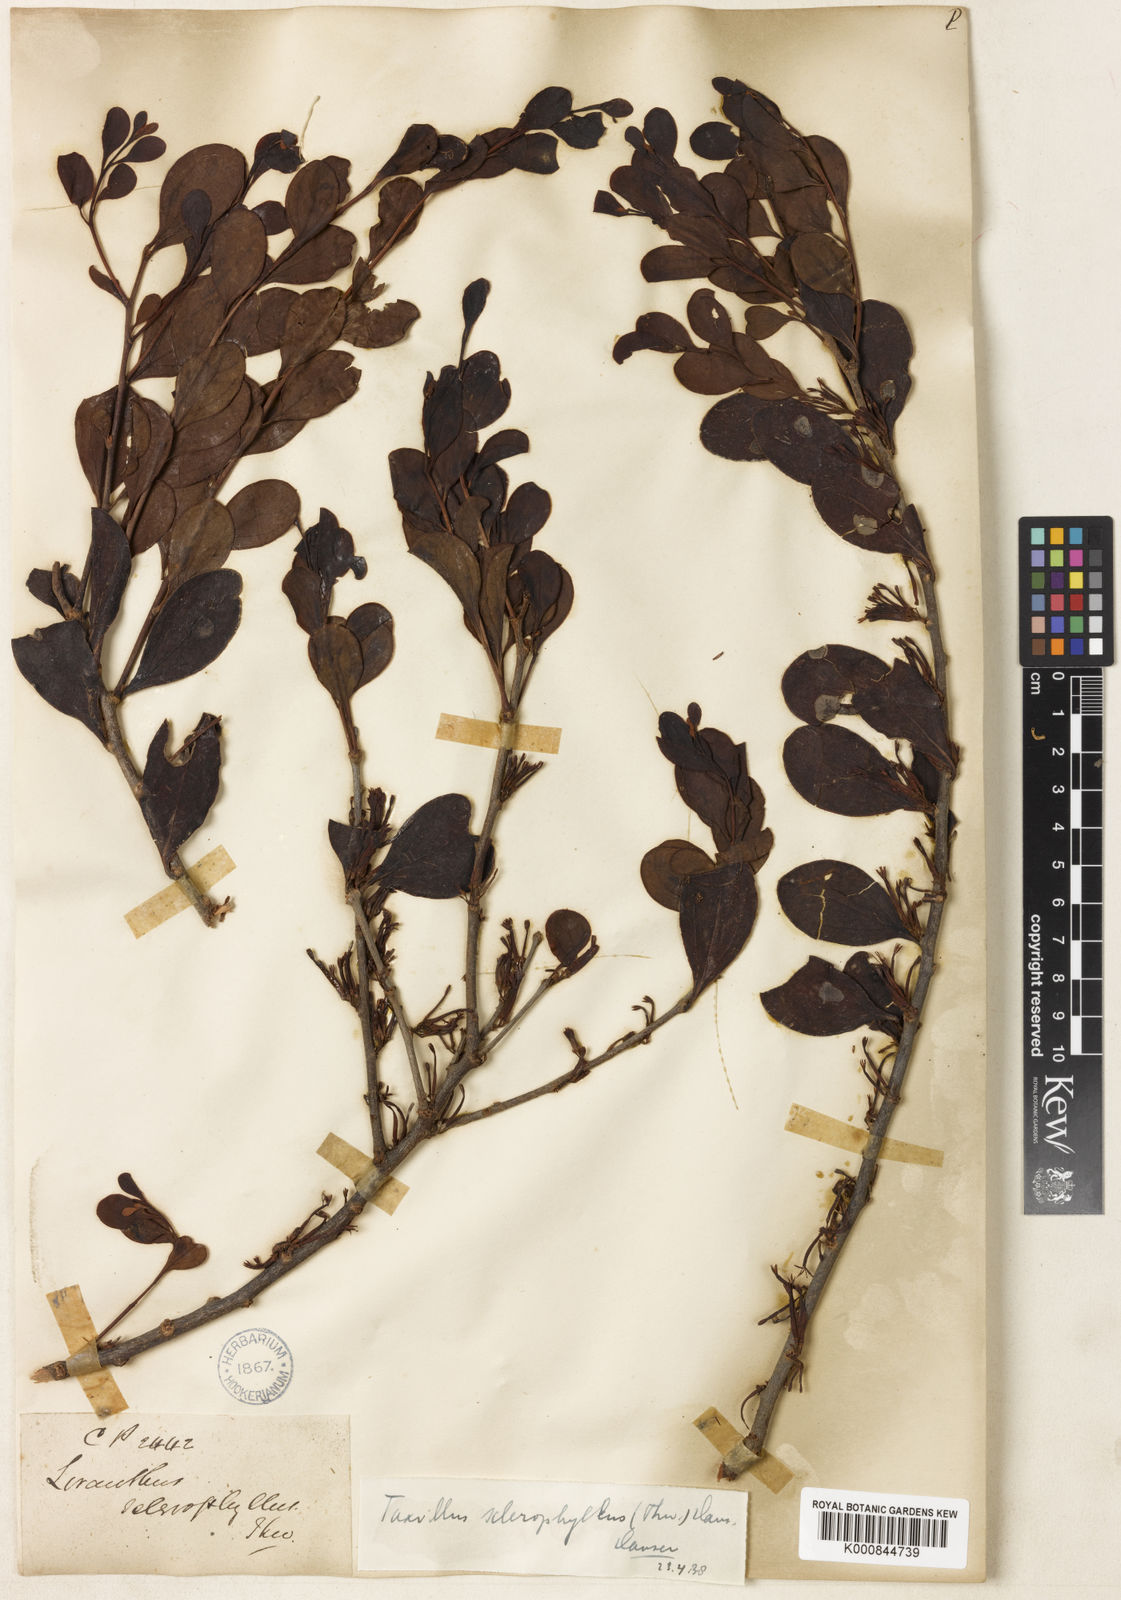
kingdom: Plantae
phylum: Tracheophyta
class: Magnoliopsida
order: Santalales
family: Loranthaceae
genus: Taxillus
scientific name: Taxillus sclerophyllus
